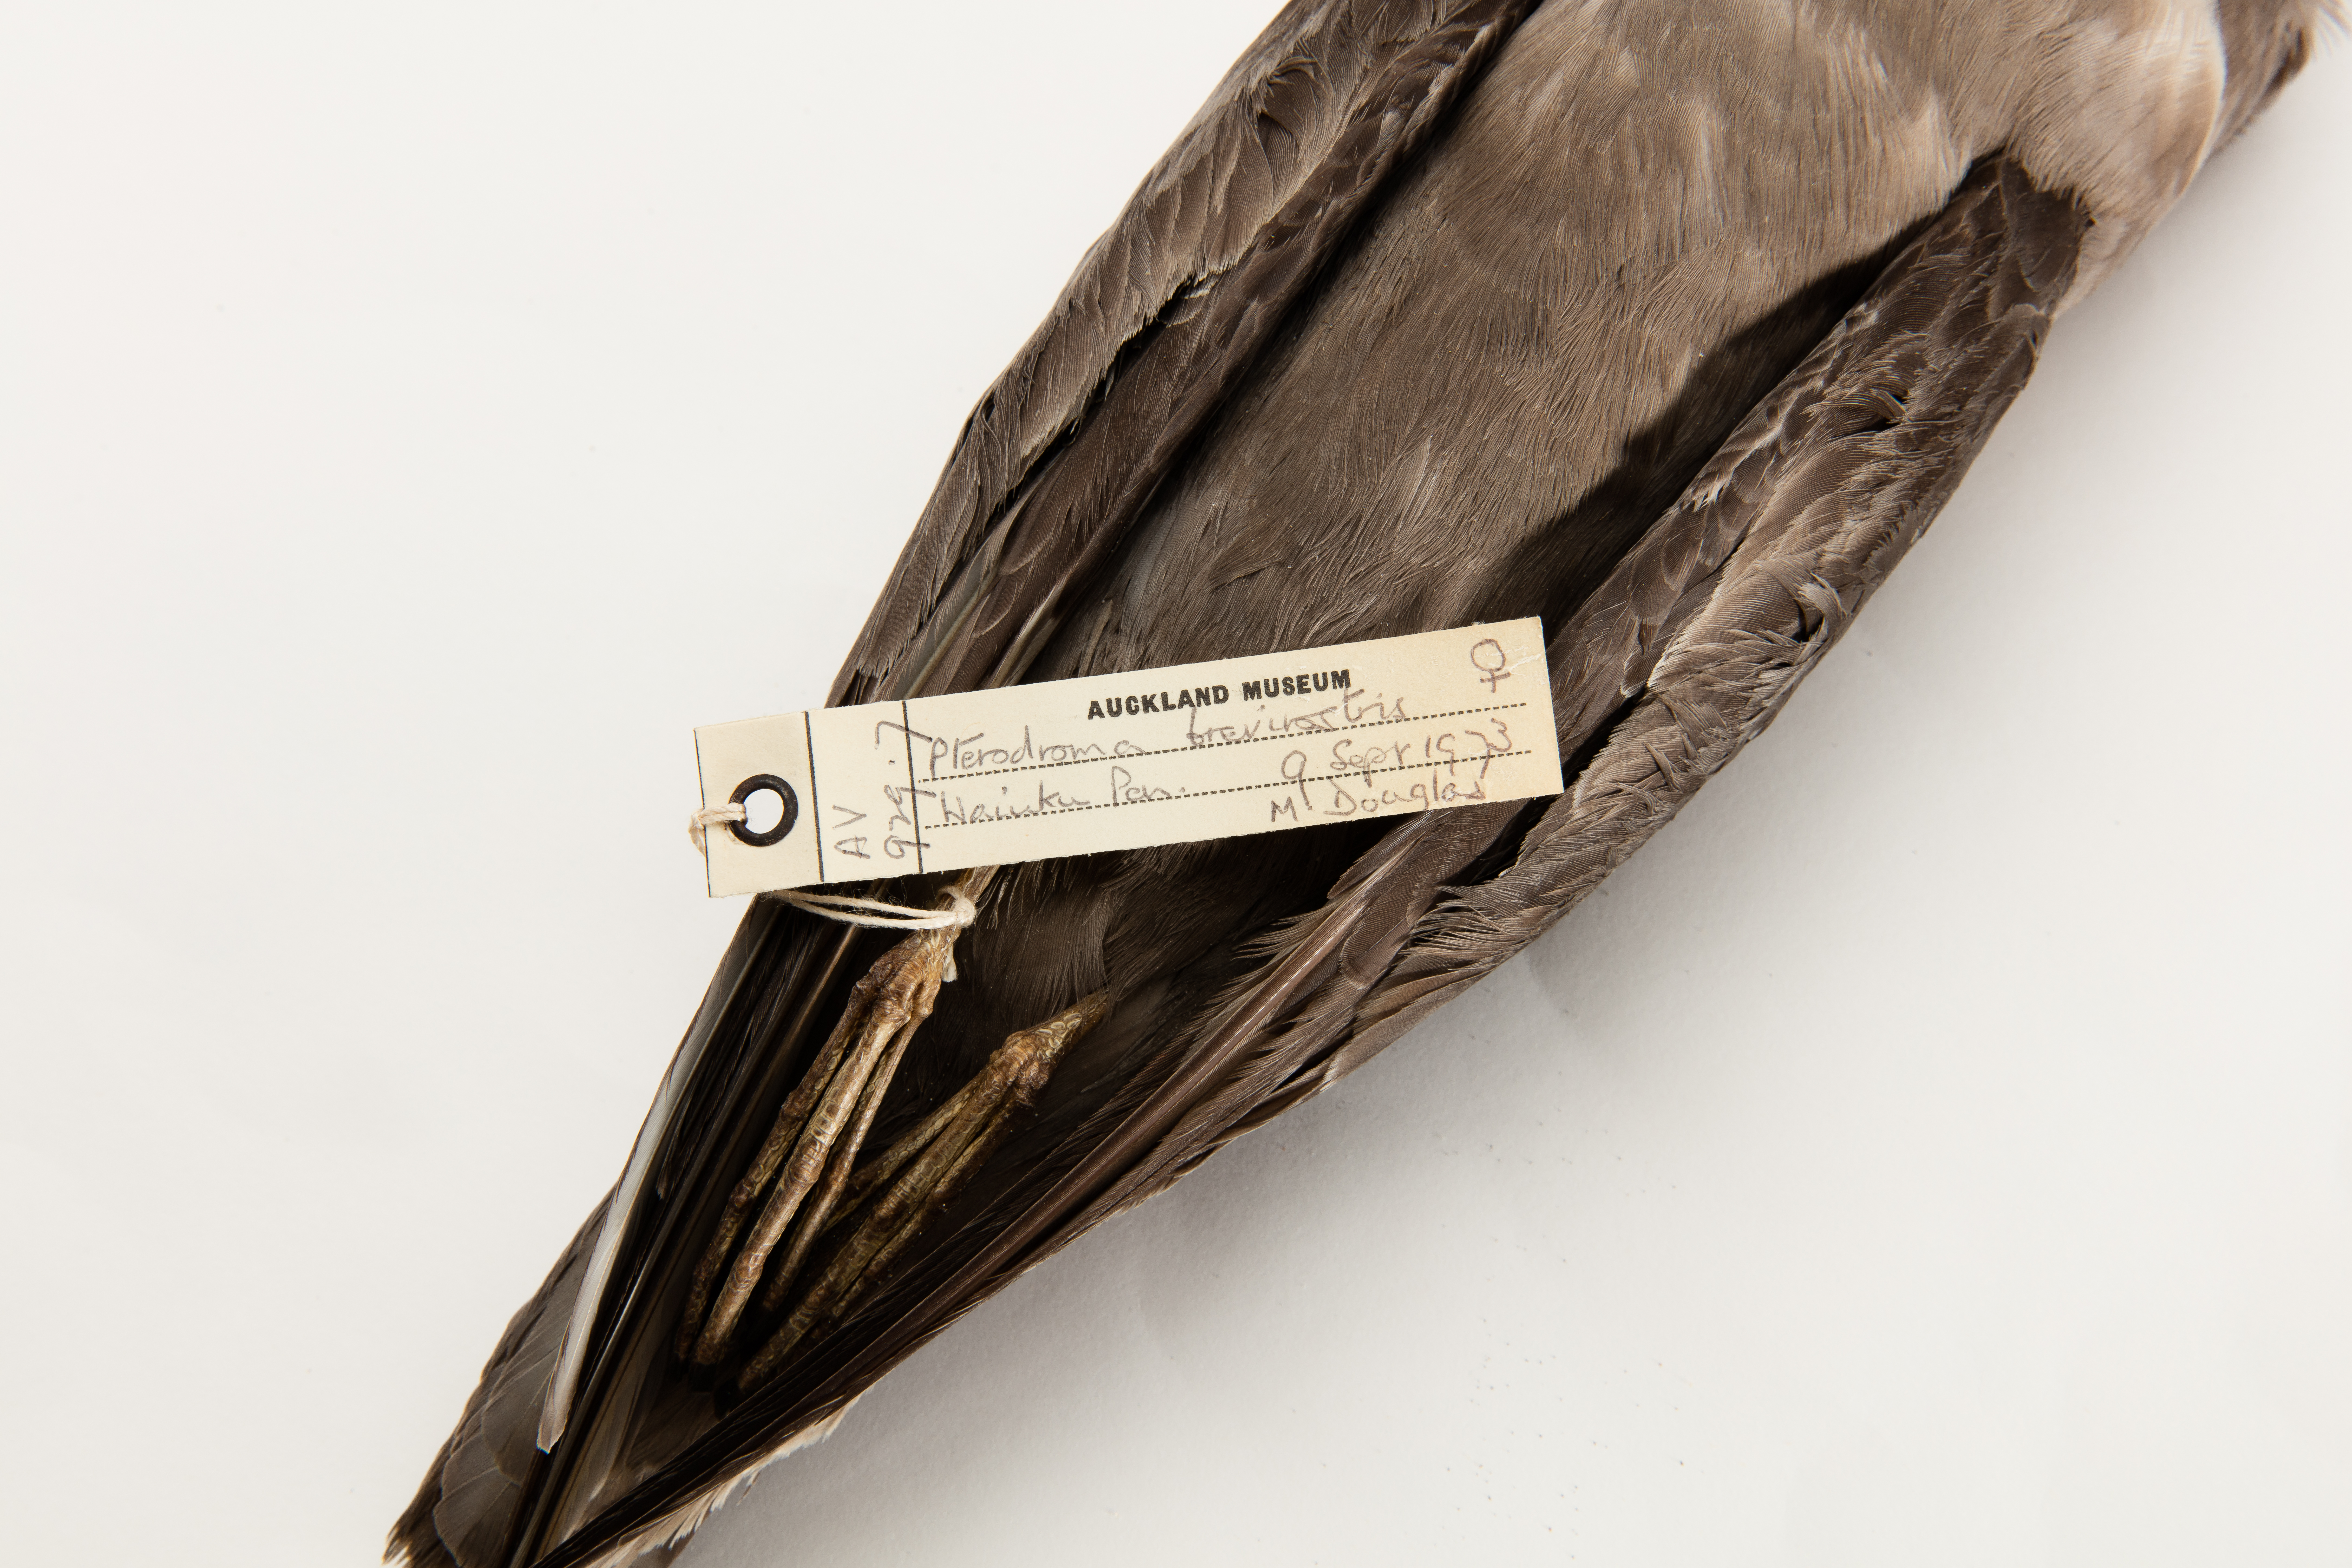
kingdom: Animalia
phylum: Chordata
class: Aves
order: Procellariiformes
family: Procellariidae
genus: Aphrodroma
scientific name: Aphrodroma brevirostris
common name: Kerguelen petrel
